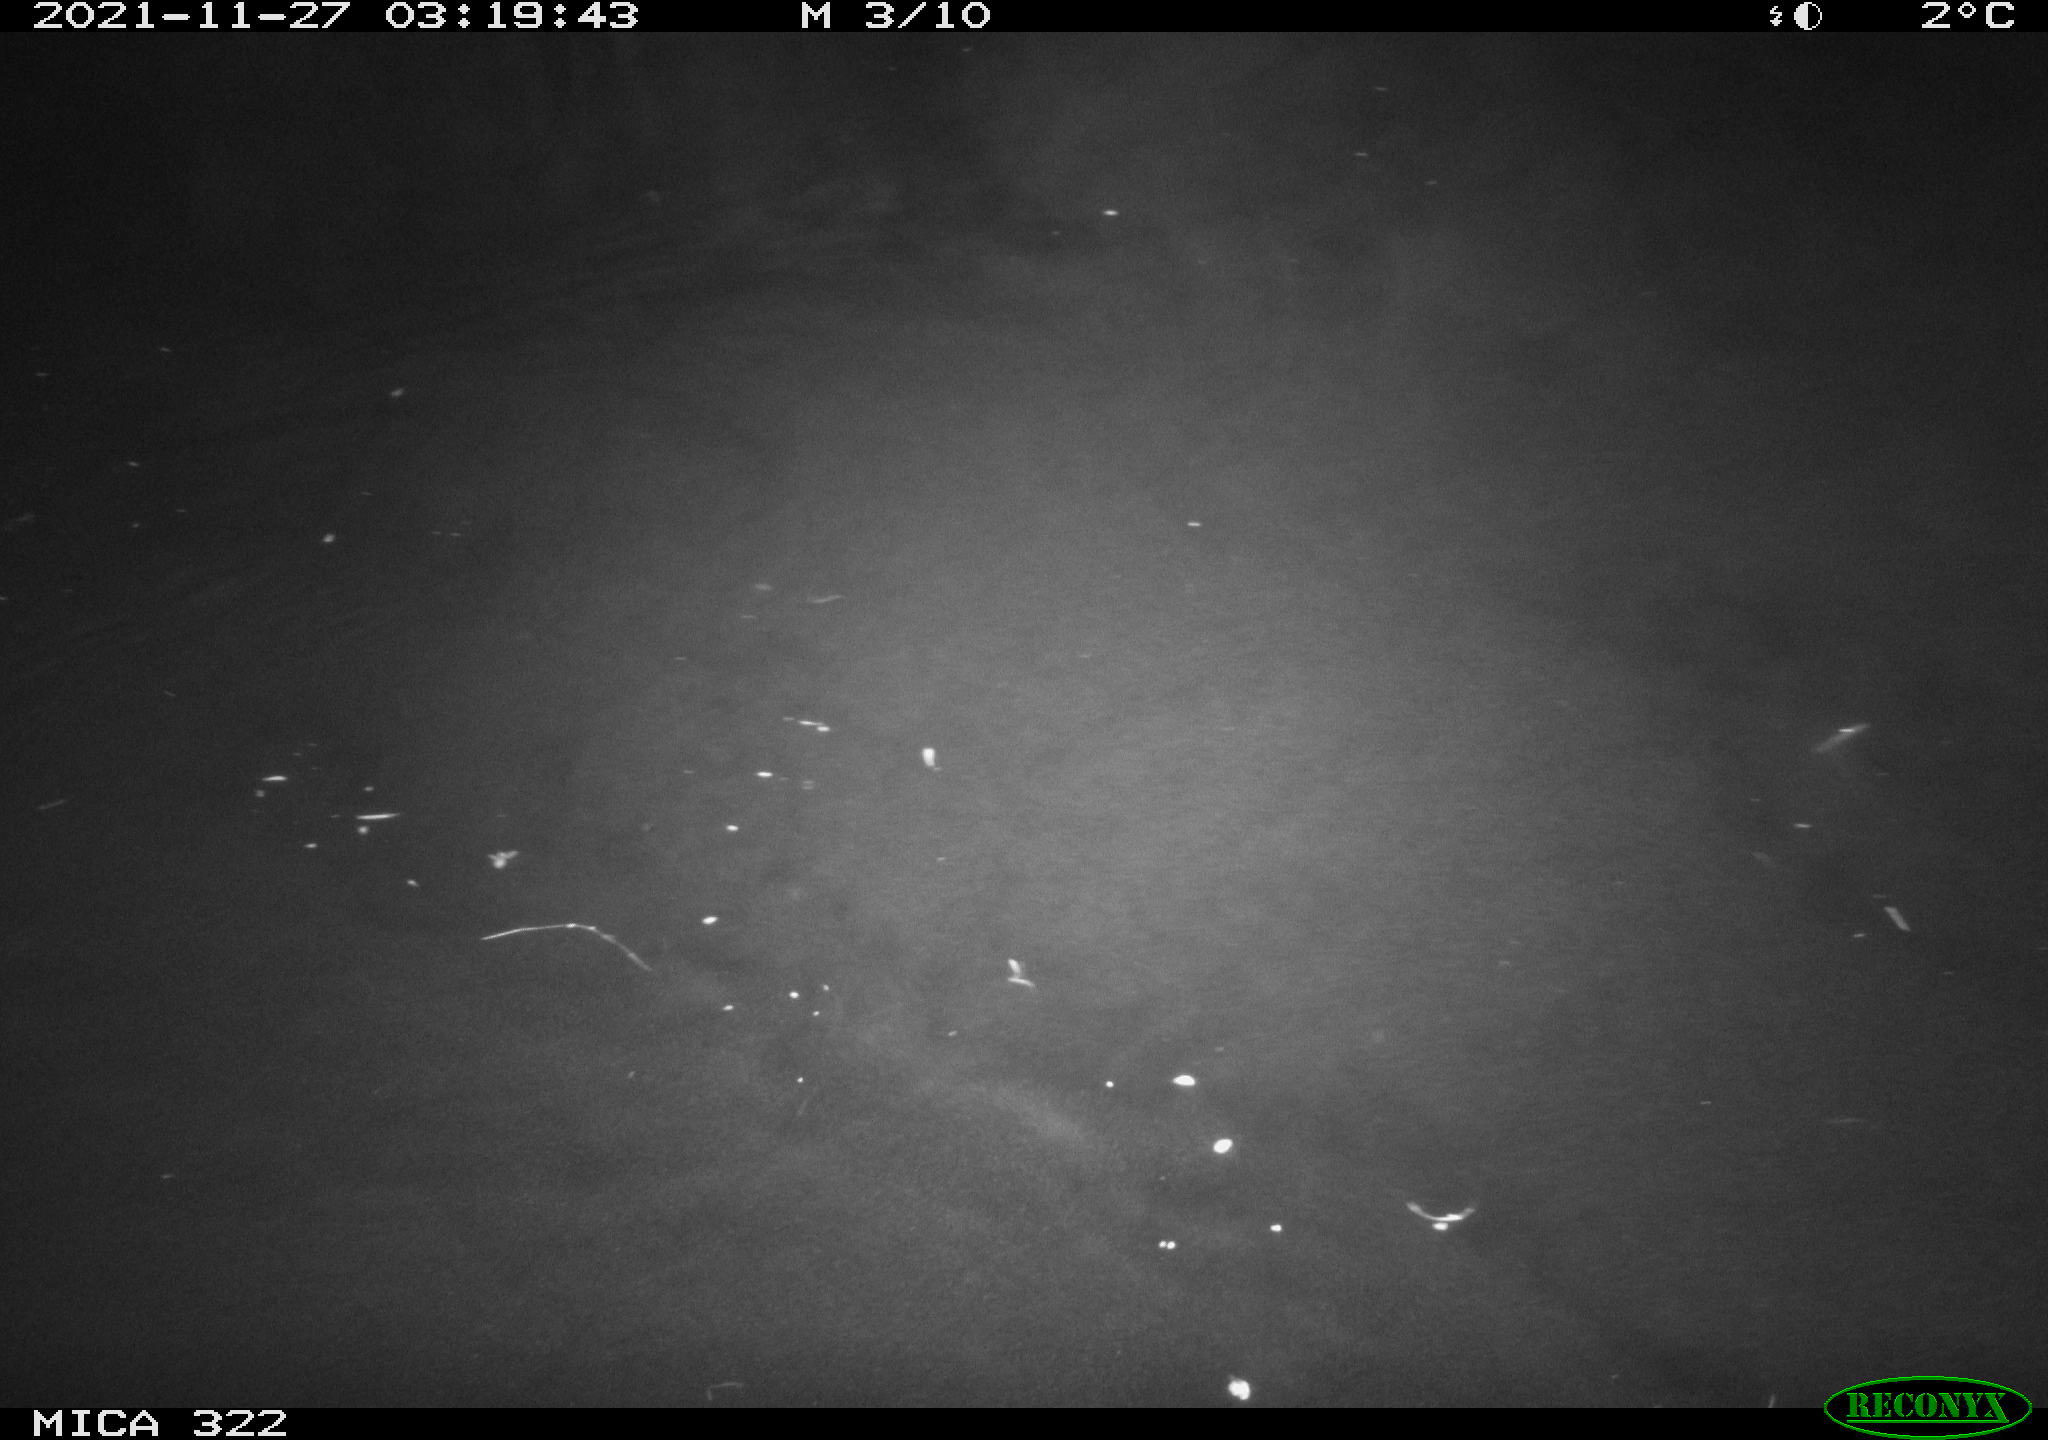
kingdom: Animalia
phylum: Chordata
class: Mammalia
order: Rodentia
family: Muridae
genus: Rattus
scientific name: Rattus norvegicus
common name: Brown rat
